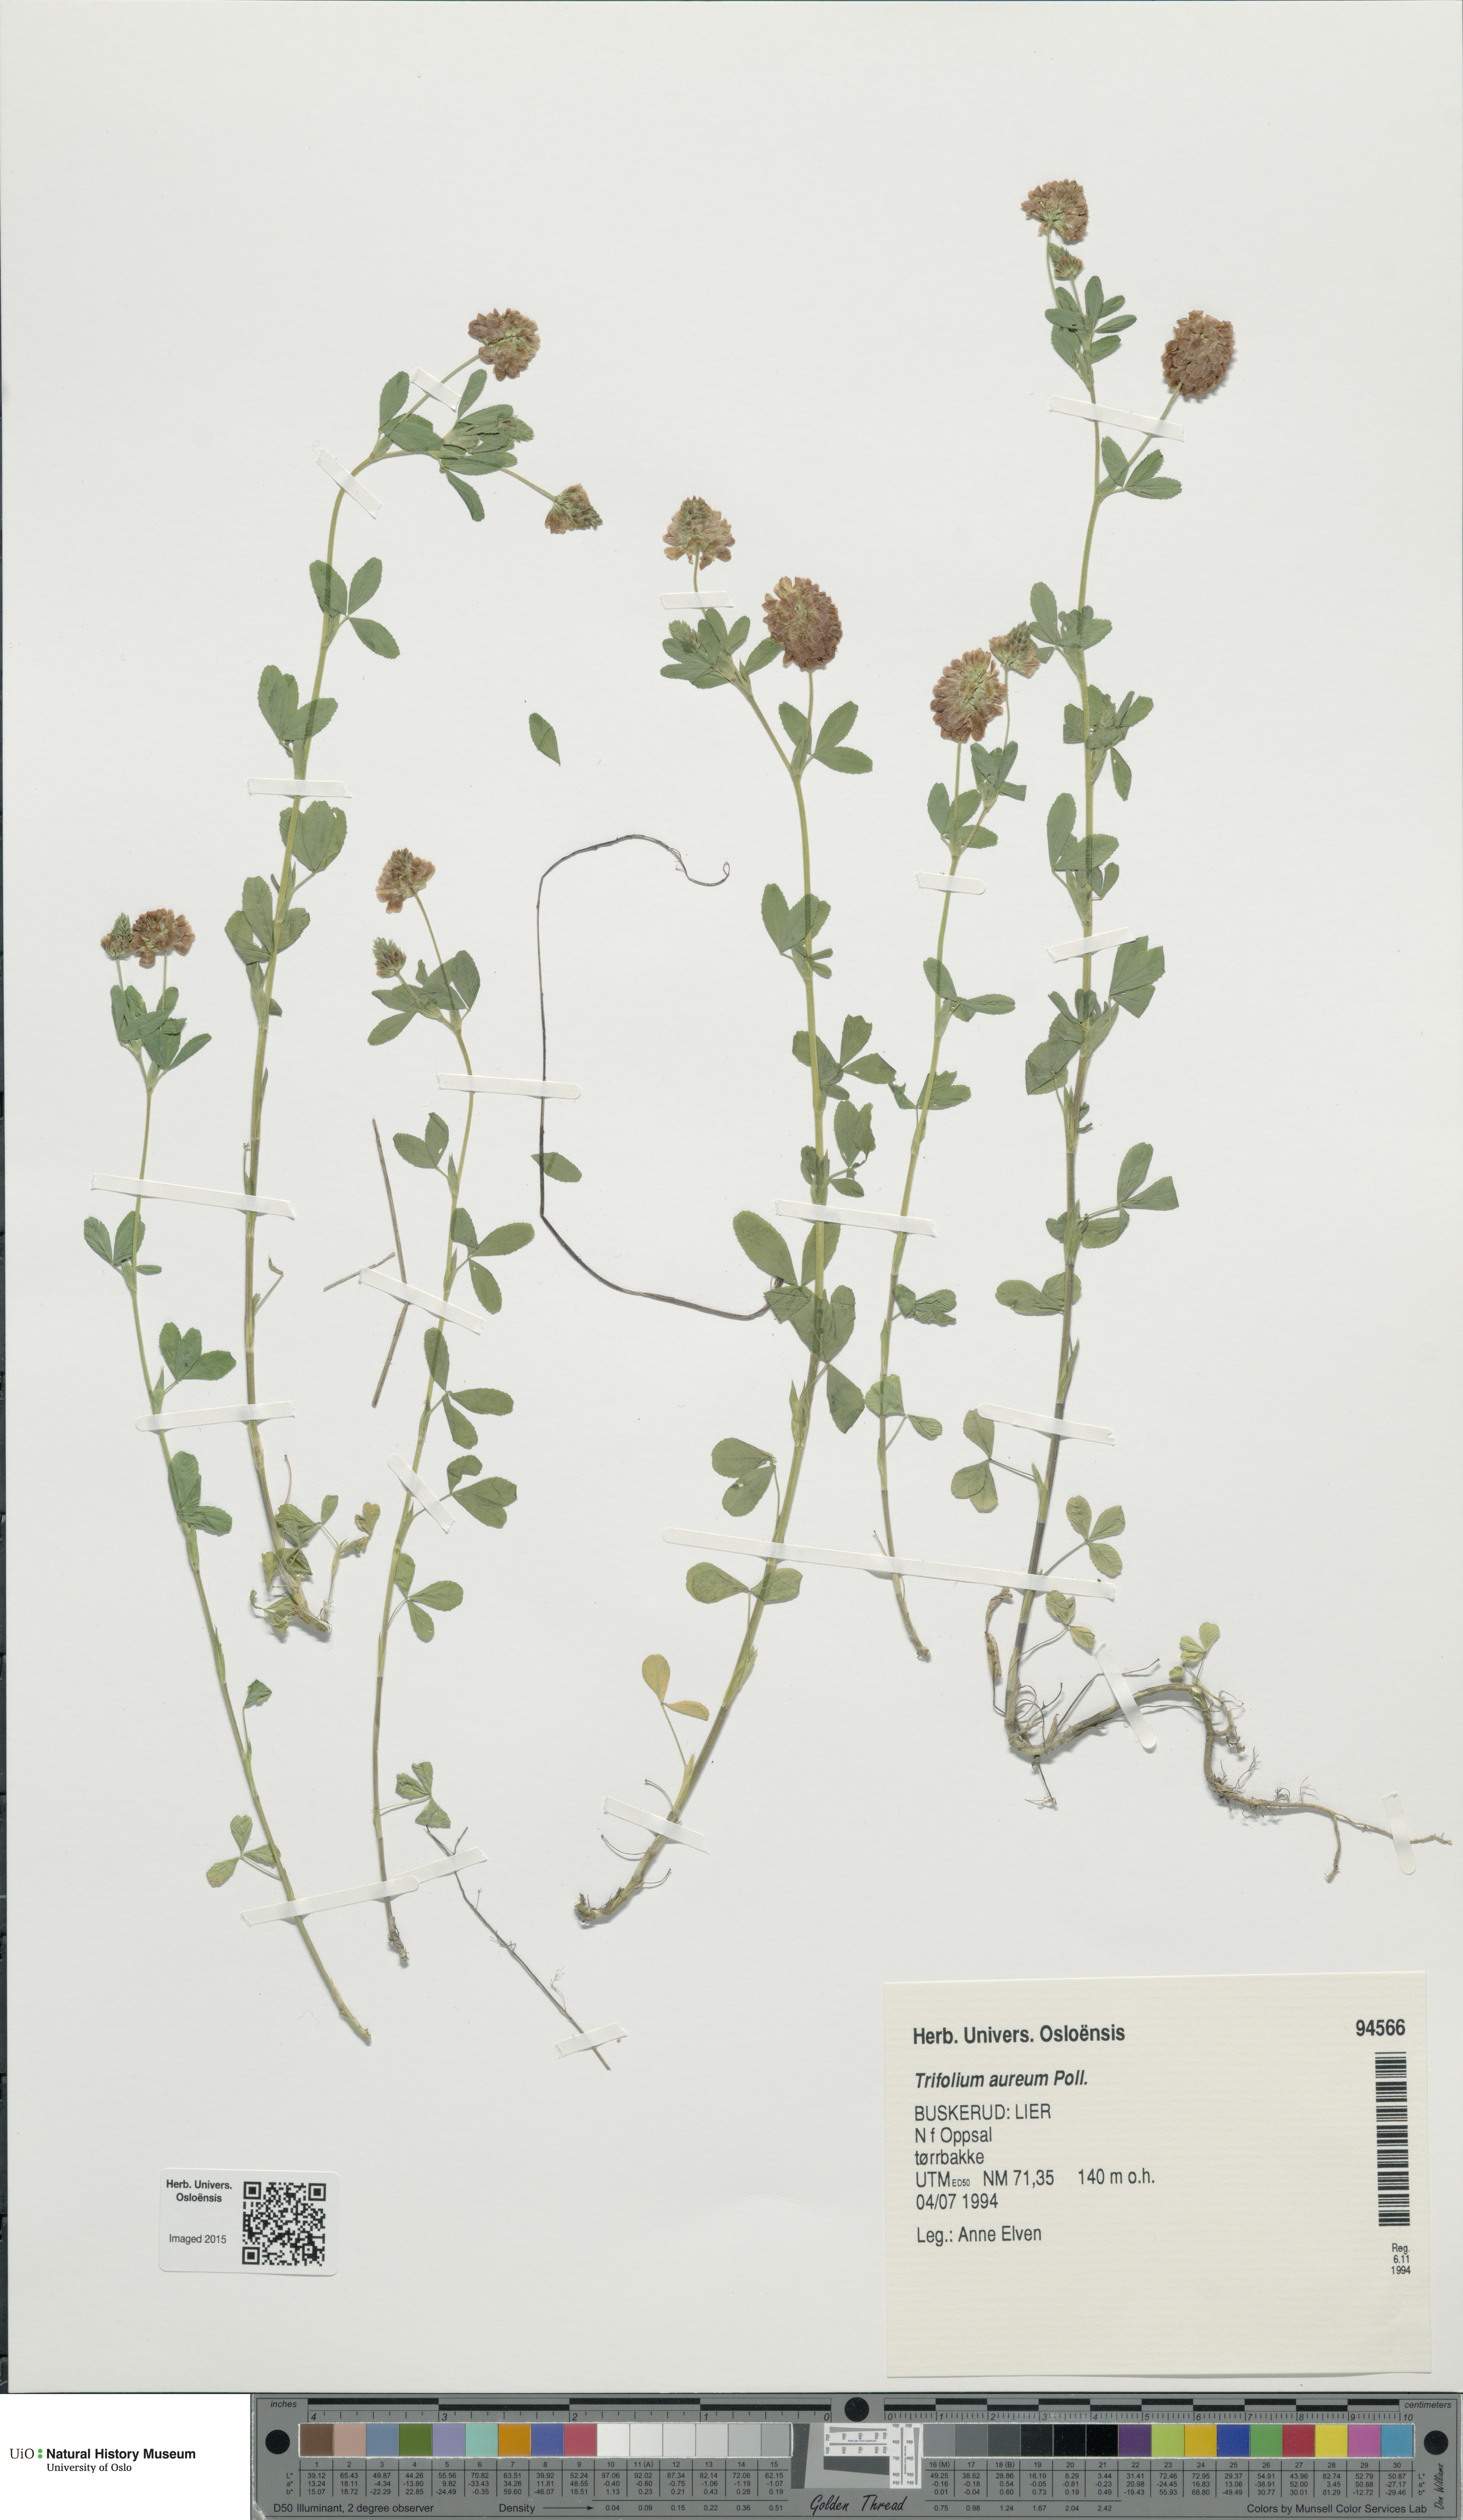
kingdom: Plantae
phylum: Tracheophyta
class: Magnoliopsida
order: Fabales
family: Fabaceae
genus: Trifolium
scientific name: Trifolium aureum
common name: Golden clover
